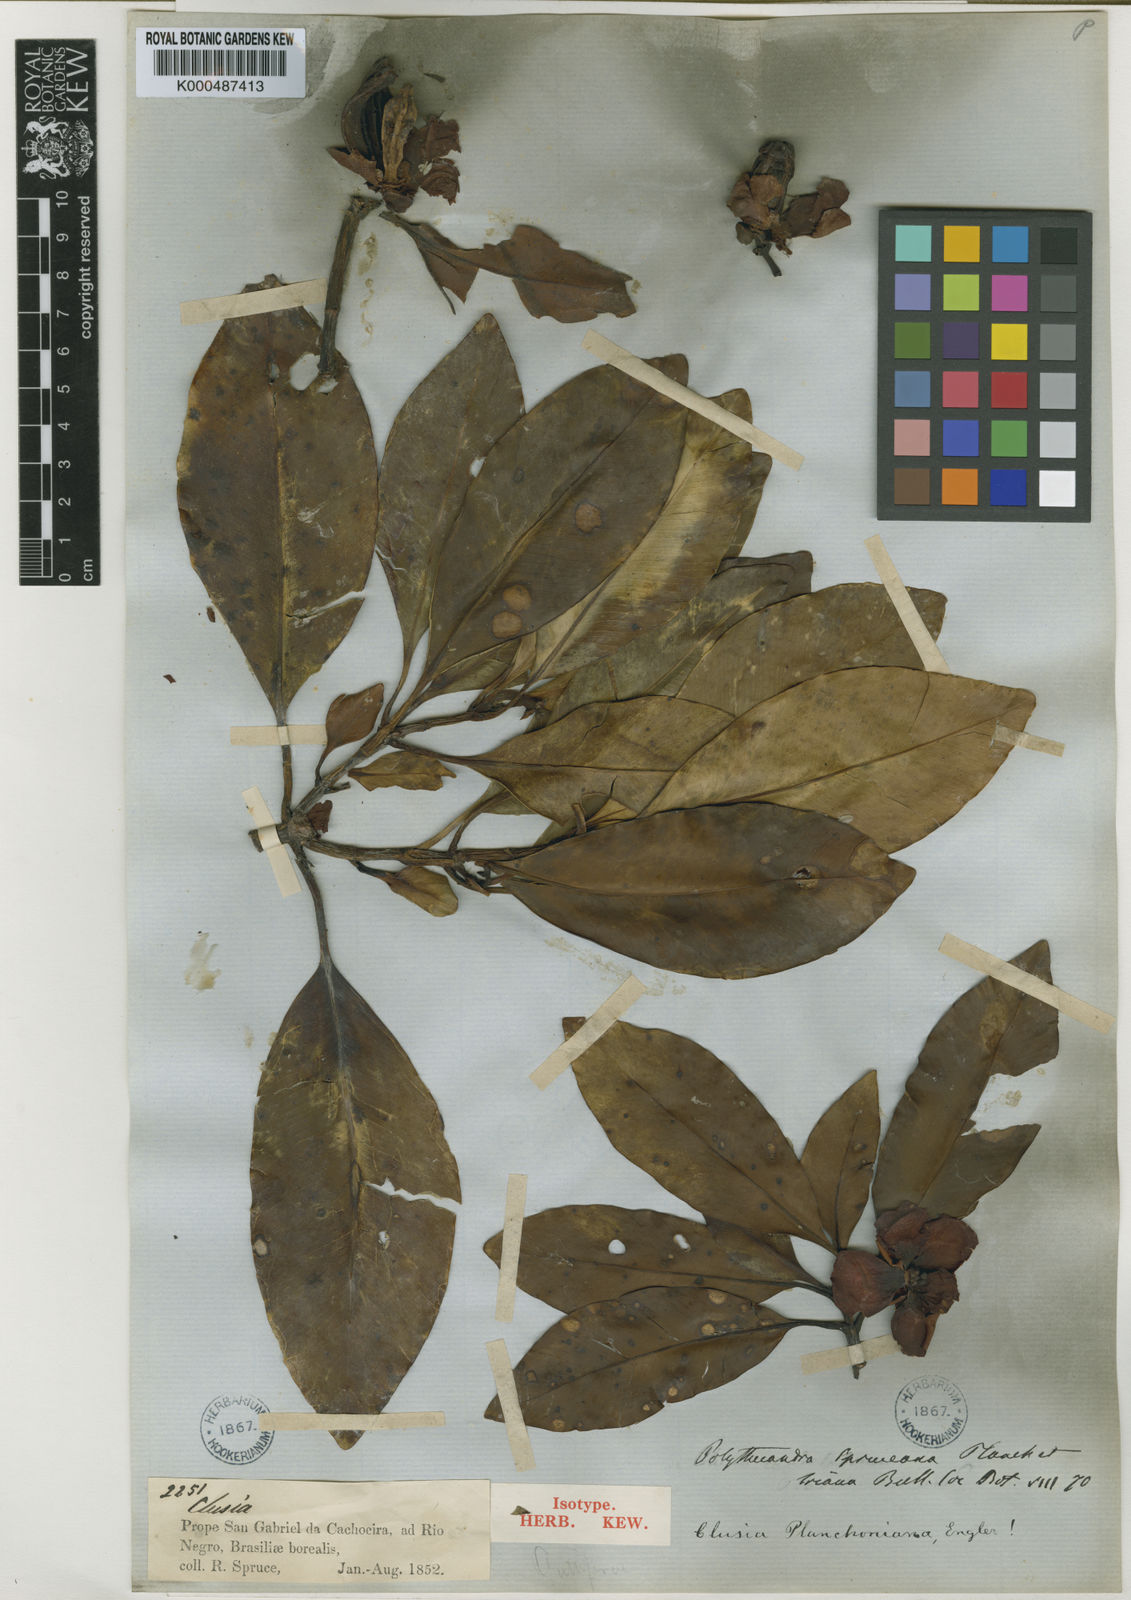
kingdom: Plantae
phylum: Tracheophyta
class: Magnoliopsida
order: Malpighiales
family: Clusiaceae
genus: Clusia
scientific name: Clusia planchoniana
